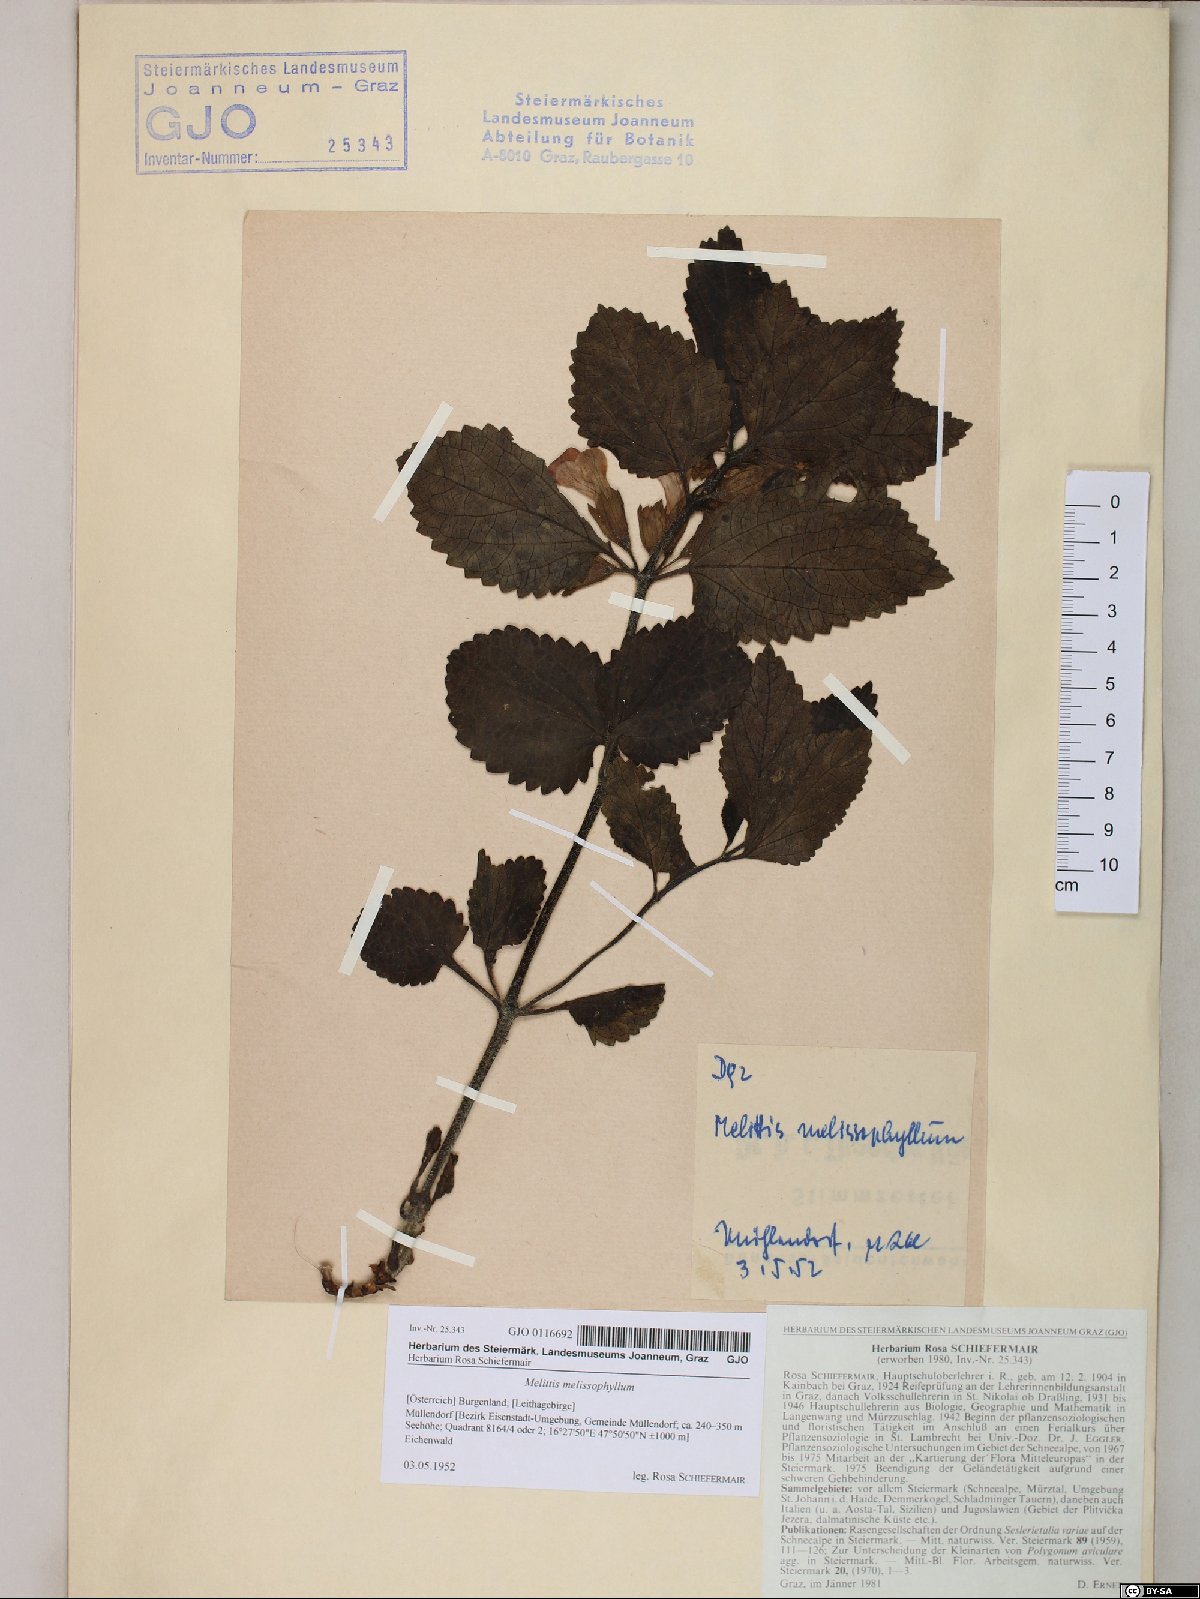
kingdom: Plantae
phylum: Tracheophyta
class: Magnoliopsida
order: Lamiales
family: Lamiaceae
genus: Melittis
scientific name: Melittis melissophyllum
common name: Bastard balm
